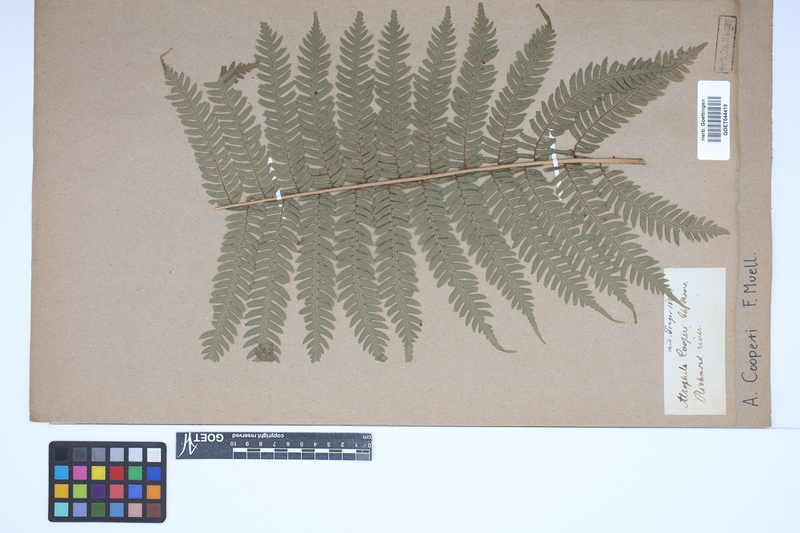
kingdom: Plantae
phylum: Tracheophyta
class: Polypodiopsida
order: Cyatheales
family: Cyatheaceae
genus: Sphaeropteris
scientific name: Sphaeropteris cooperi
